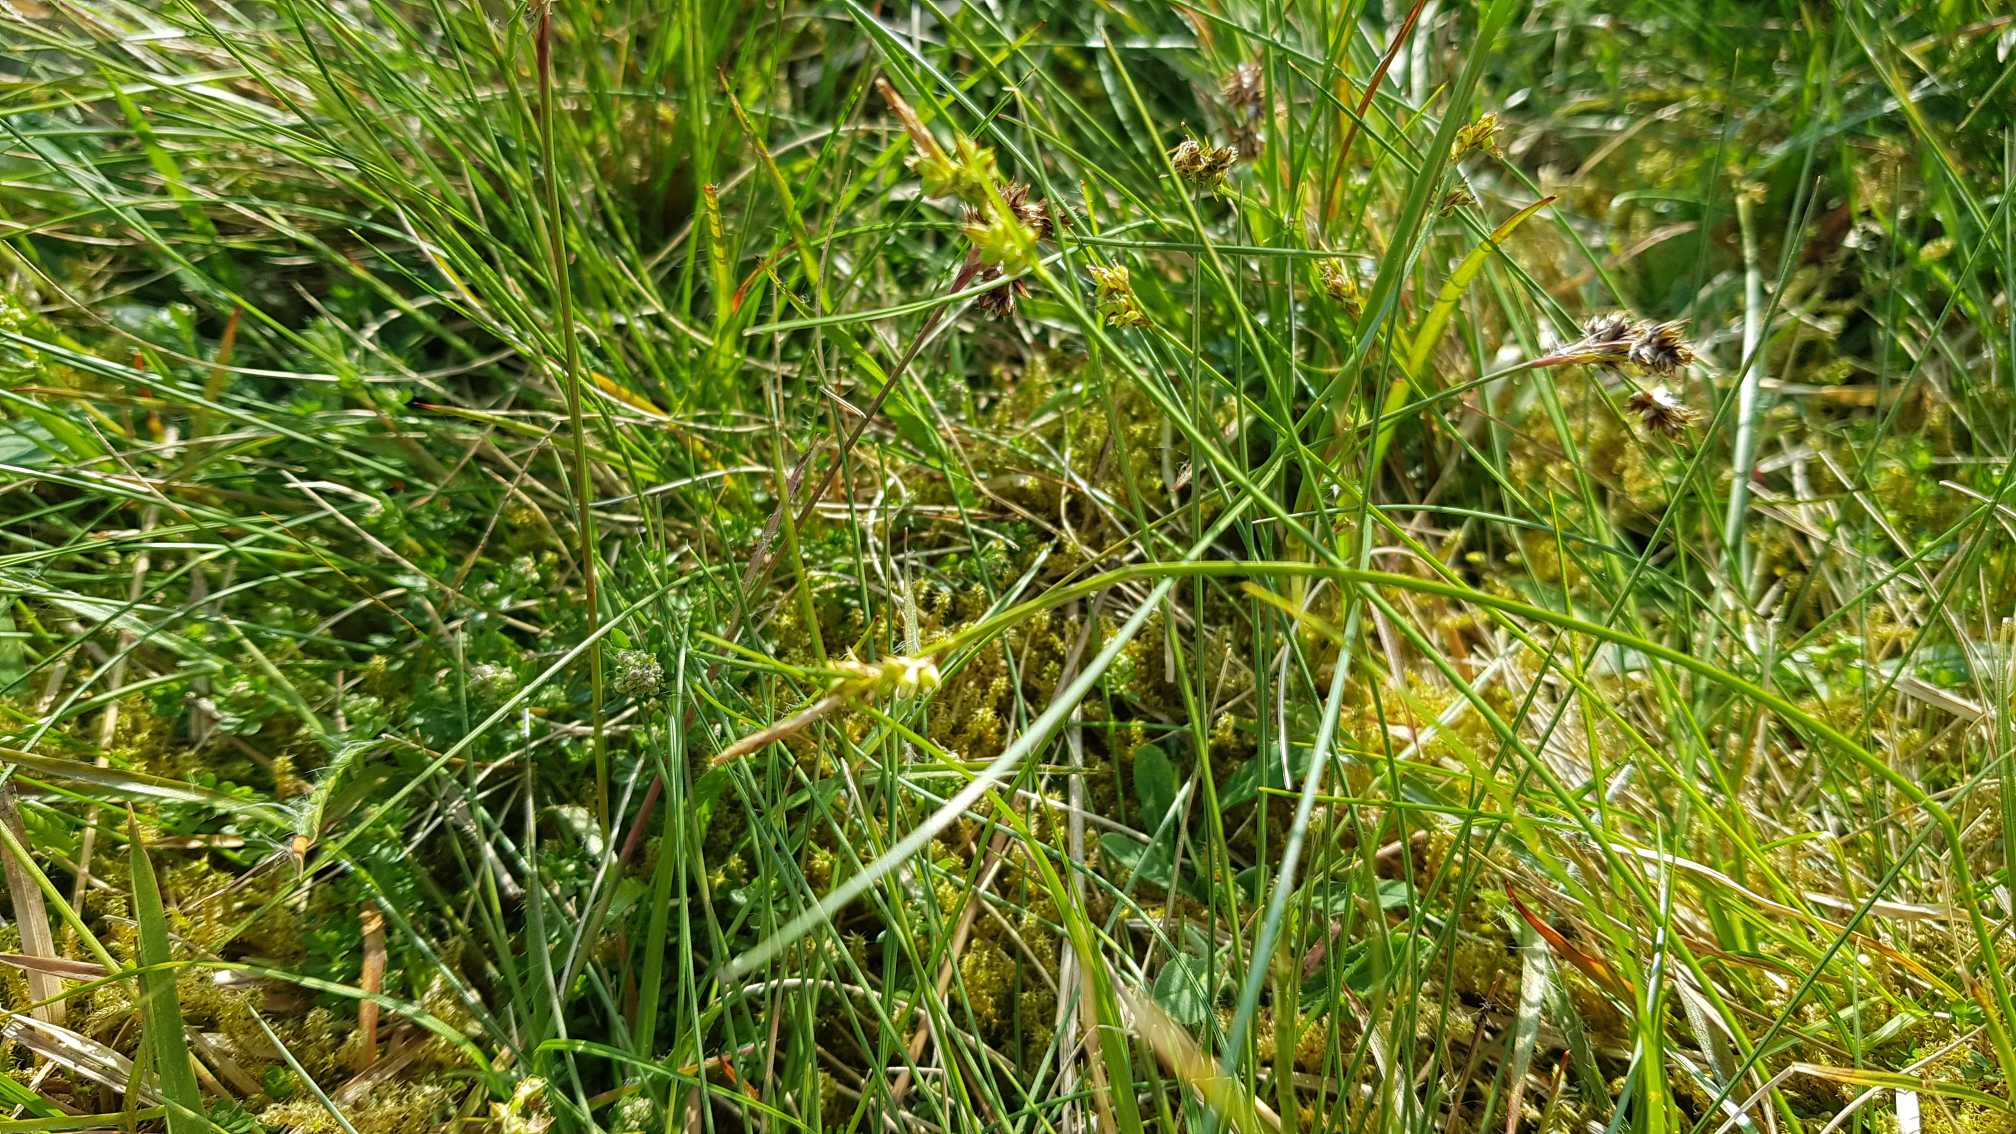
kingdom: Plantae
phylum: Tracheophyta
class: Liliopsida
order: Poales
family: Cyperaceae
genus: Carex
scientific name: Carex pilulifera
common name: Pille-star
